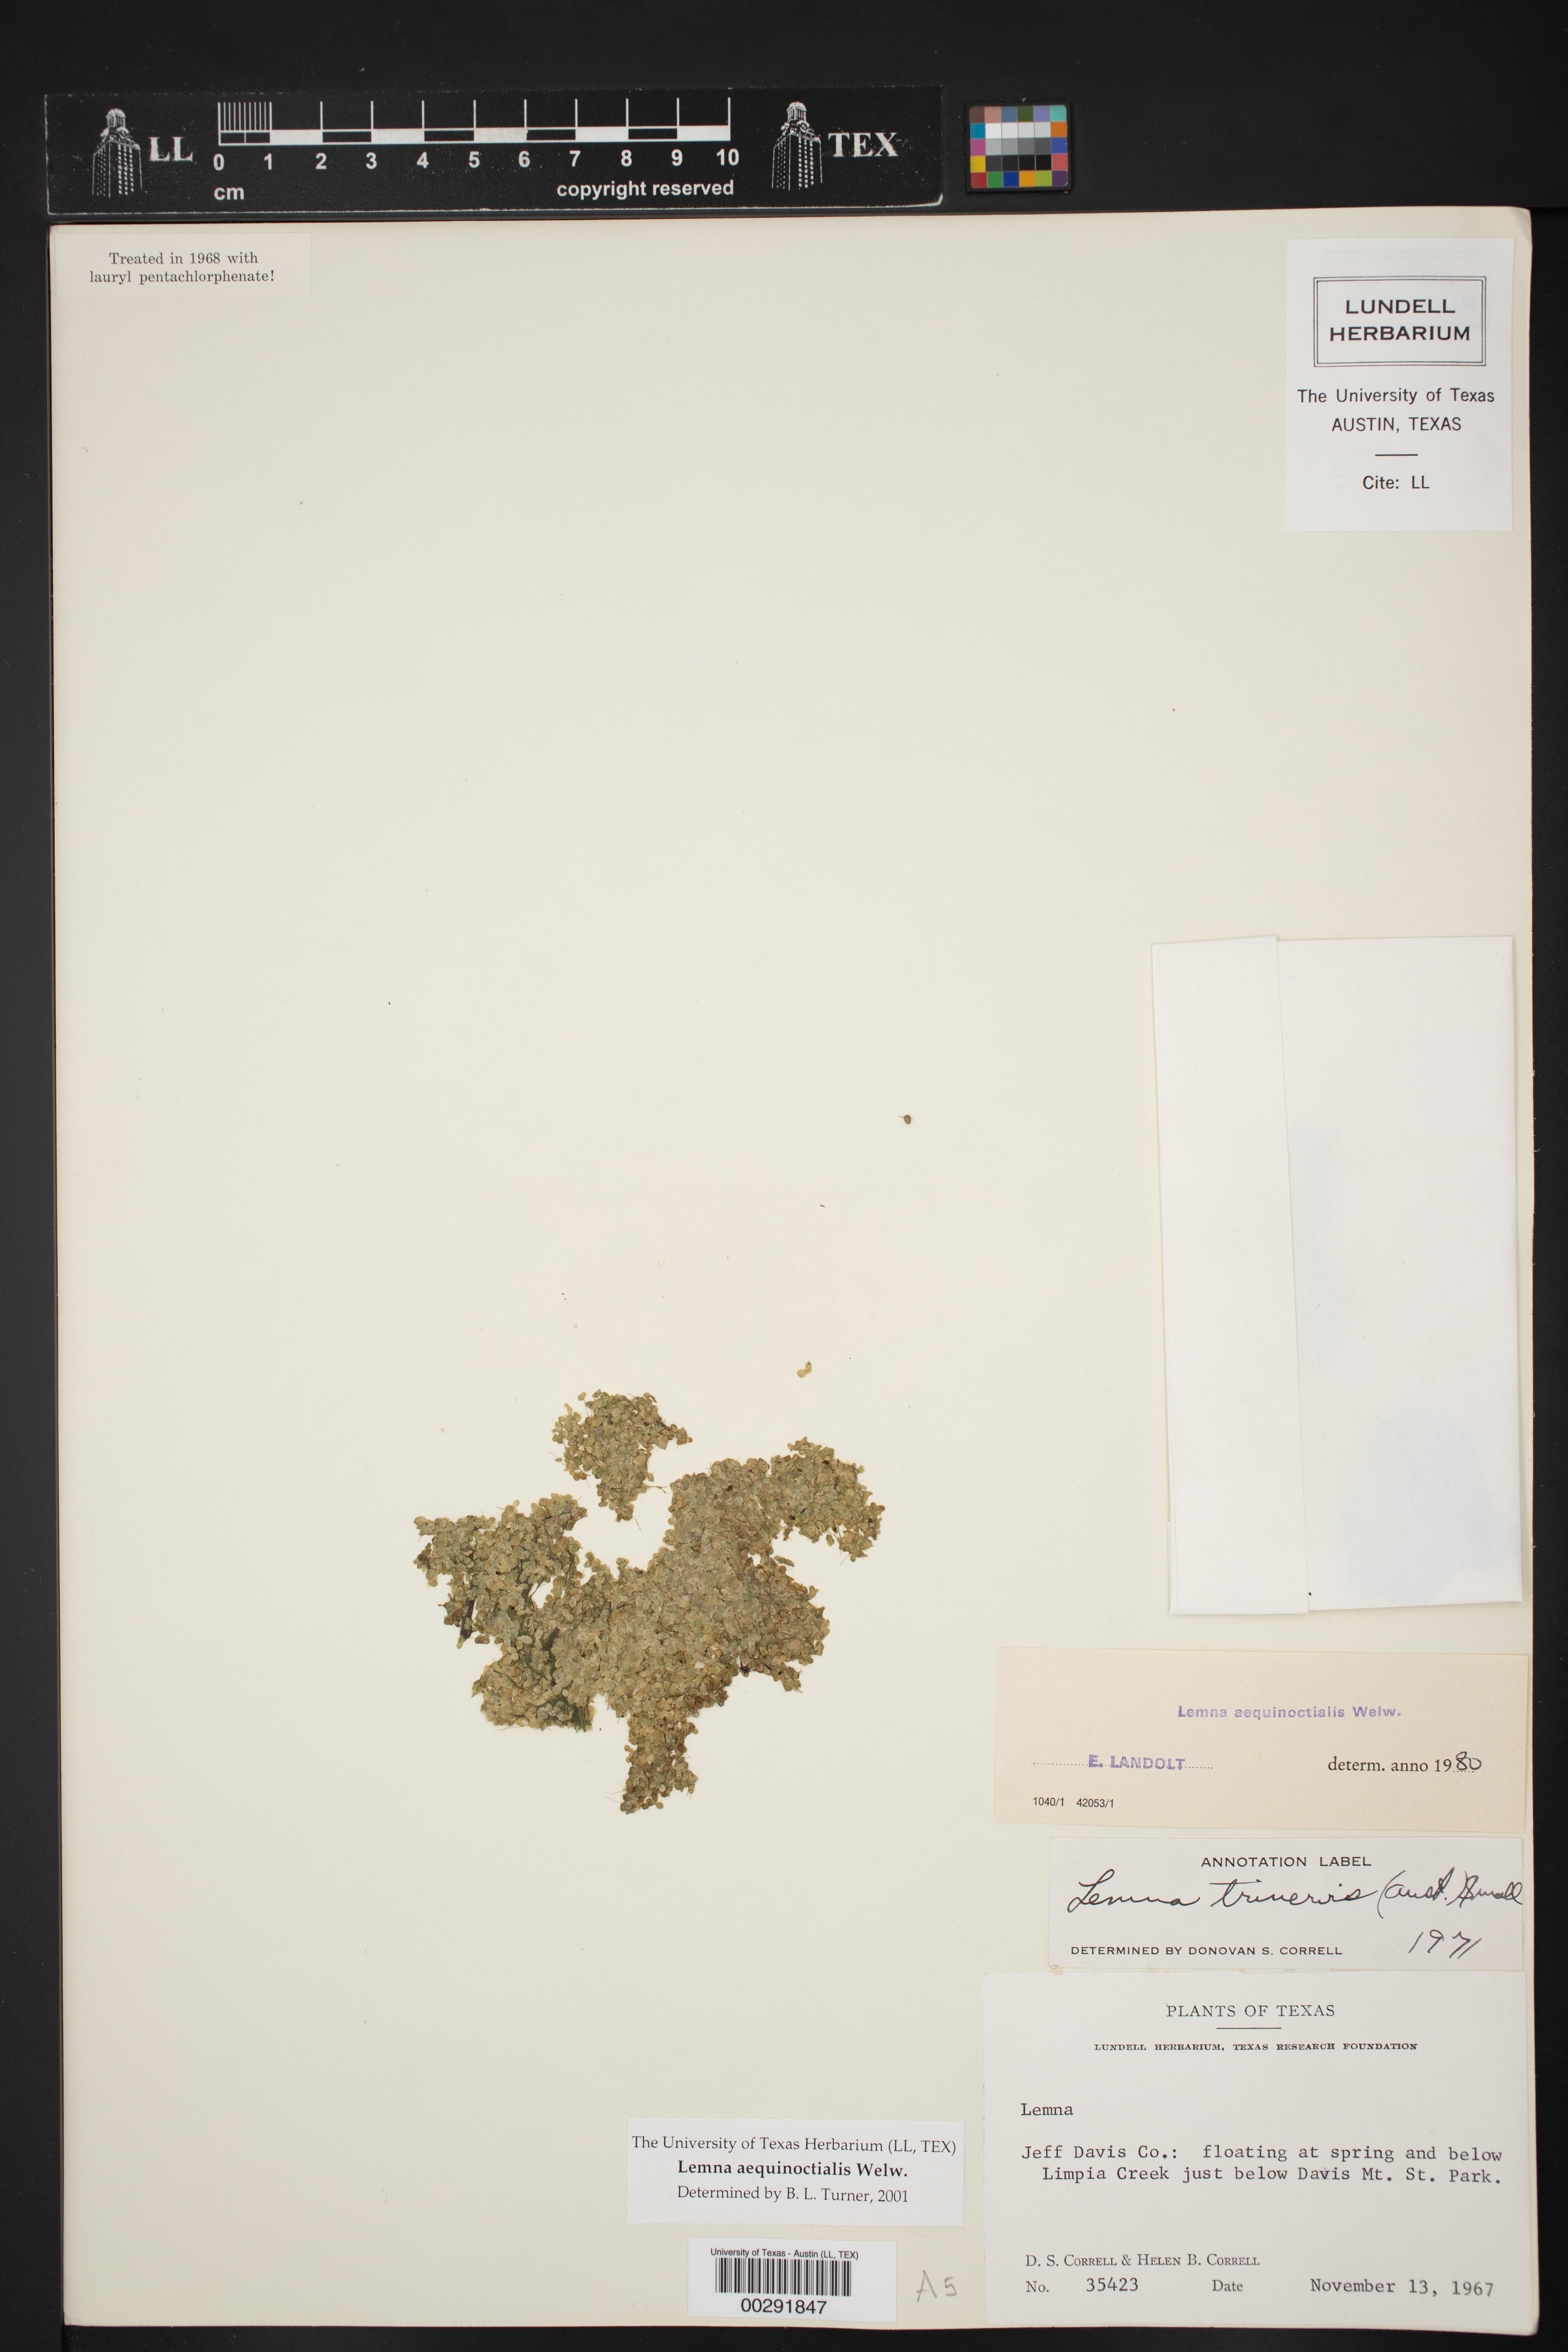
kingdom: Plantae
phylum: Tracheophyta
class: Liliopsida
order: Alismatales
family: Araceae
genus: Lemna
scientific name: Lemna aequinoctialis
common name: Duckweed
